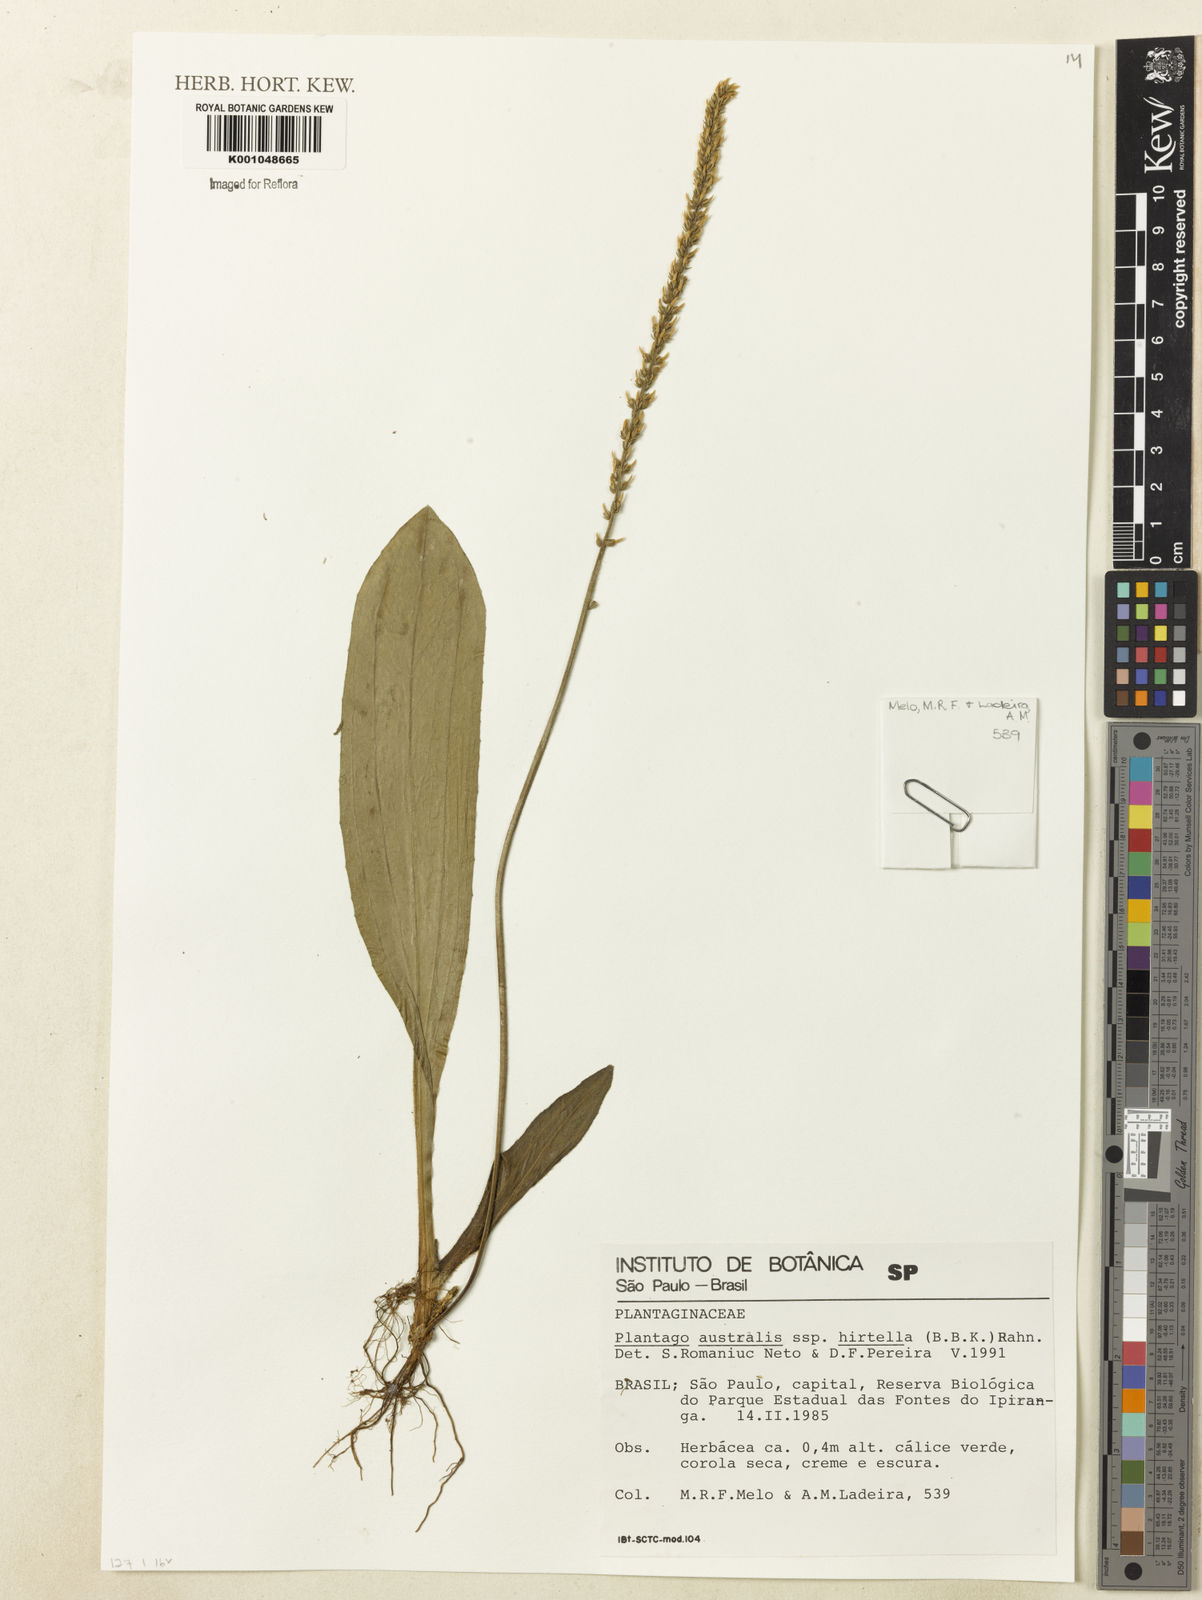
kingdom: Plantae
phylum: Tracheophyta
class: Magnoliopsida
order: Lamiales
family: Plantaginaceae
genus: Plantago
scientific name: Plantago australis
